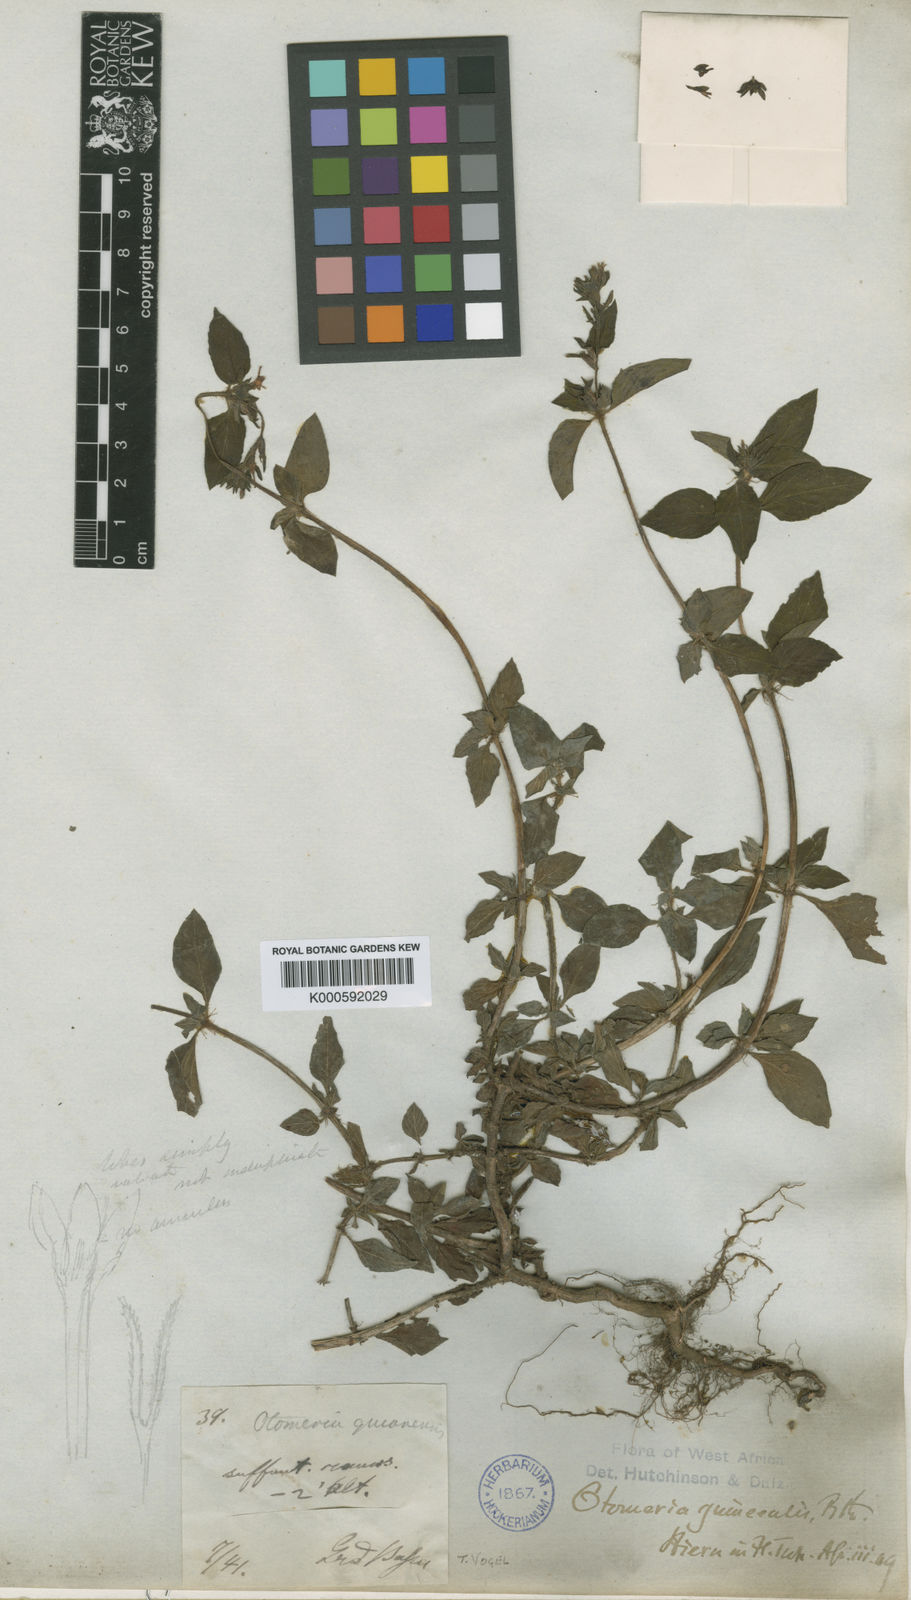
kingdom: Plantae
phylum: Tracheophyta
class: Magnoliopsida
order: Gentianales
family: Rubiaceae
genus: Otomeria
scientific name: Otomeria guineensis
